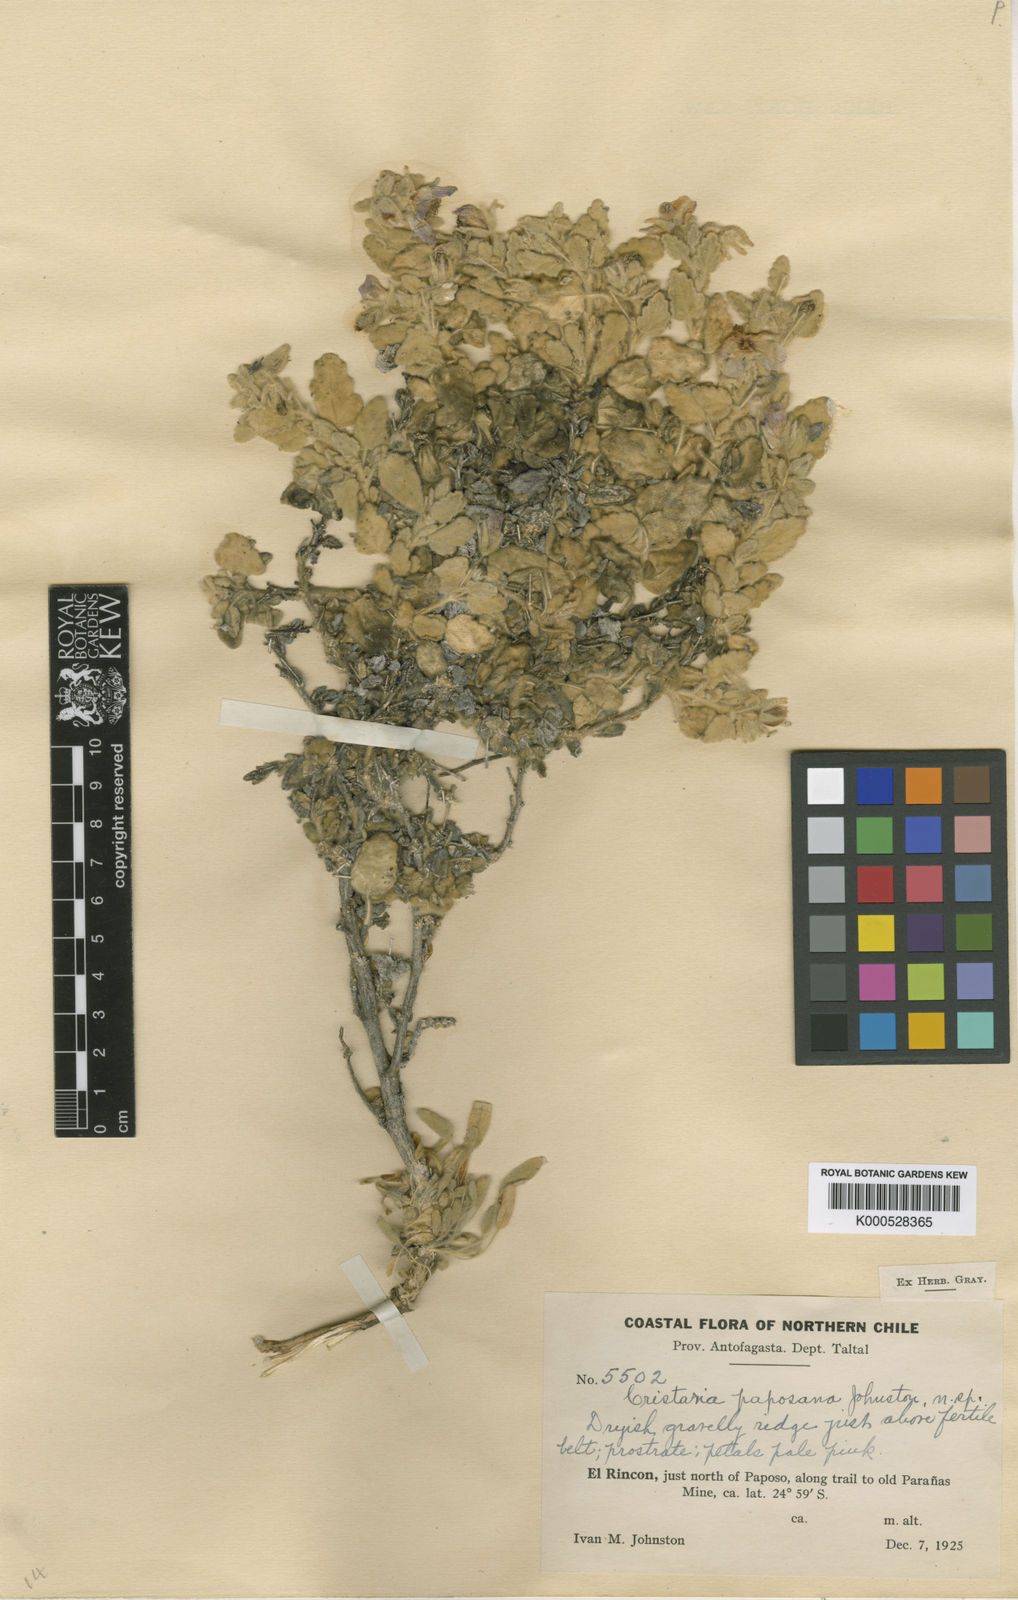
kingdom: Plantae
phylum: Tracheophyta
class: Magnoliopsida
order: Malvales
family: Malvaceae
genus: Cristaria
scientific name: Cristaria integerrima
